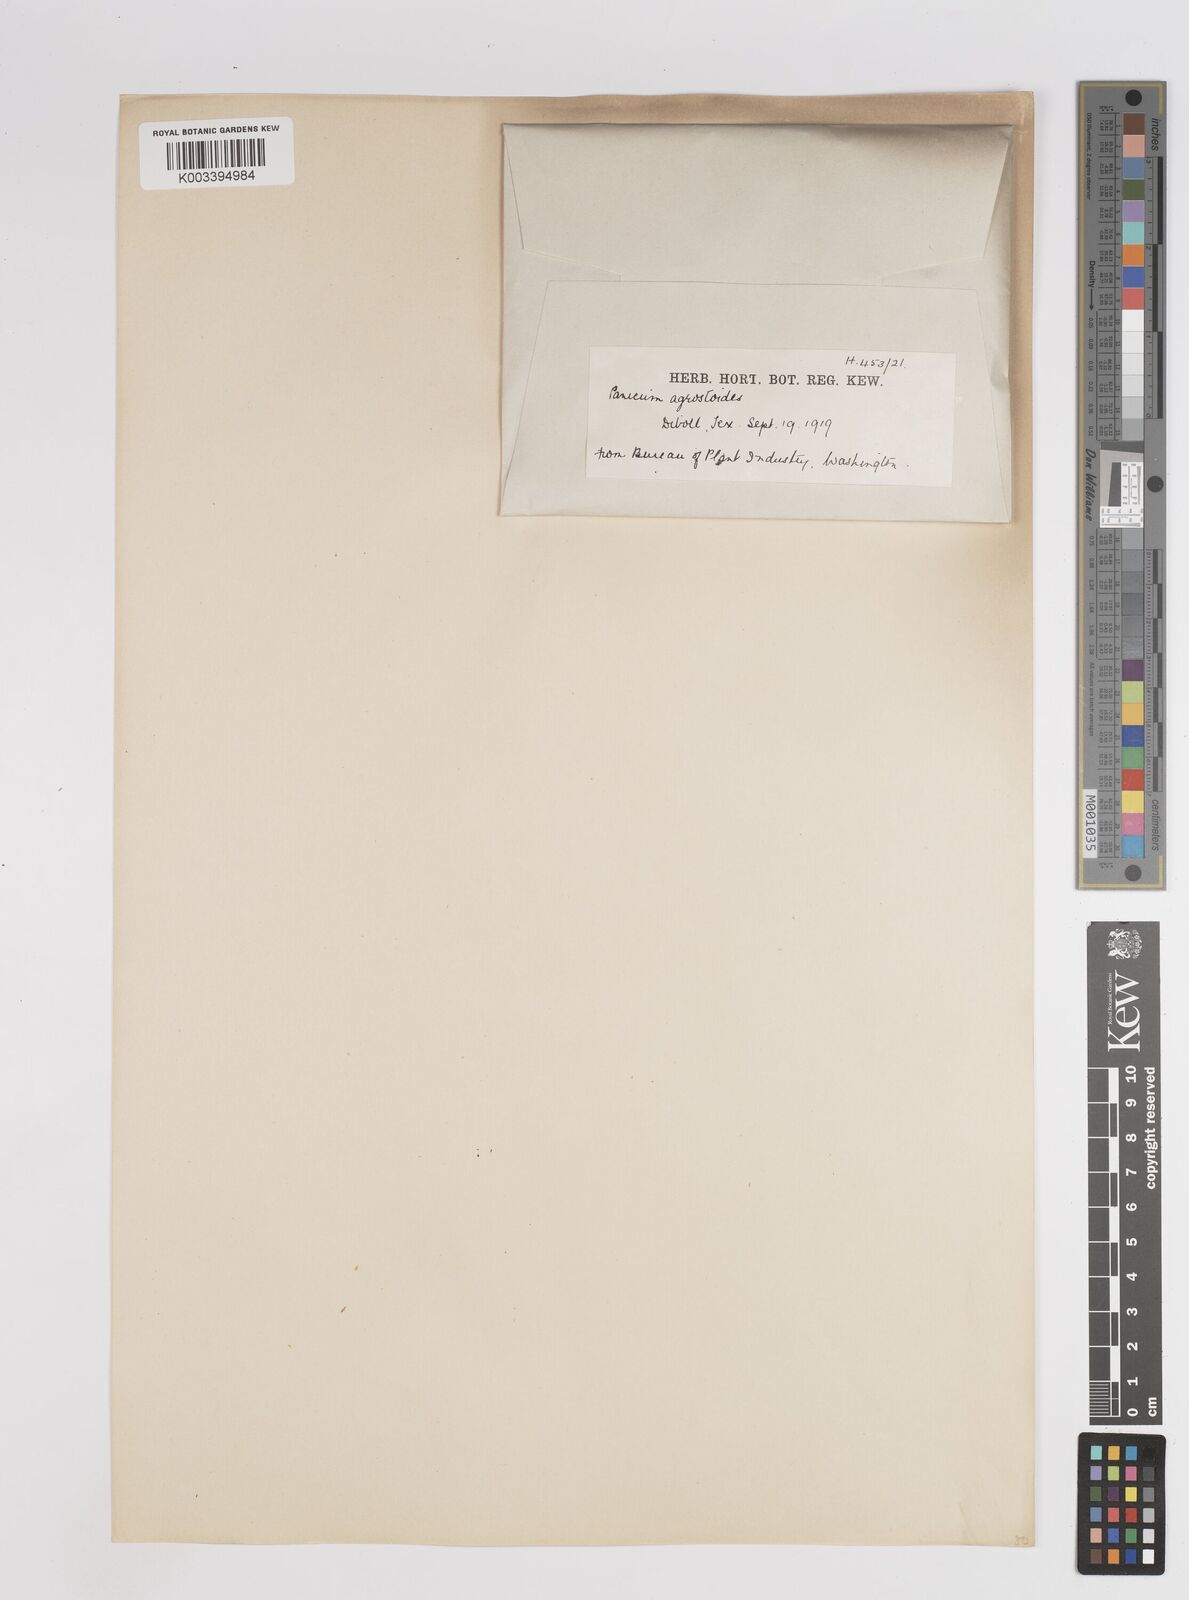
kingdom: Plantae
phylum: Tracheophyta
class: Liliopsida
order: Poales
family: Poaceae
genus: Steinchisma
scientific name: Steinchisma laxum
